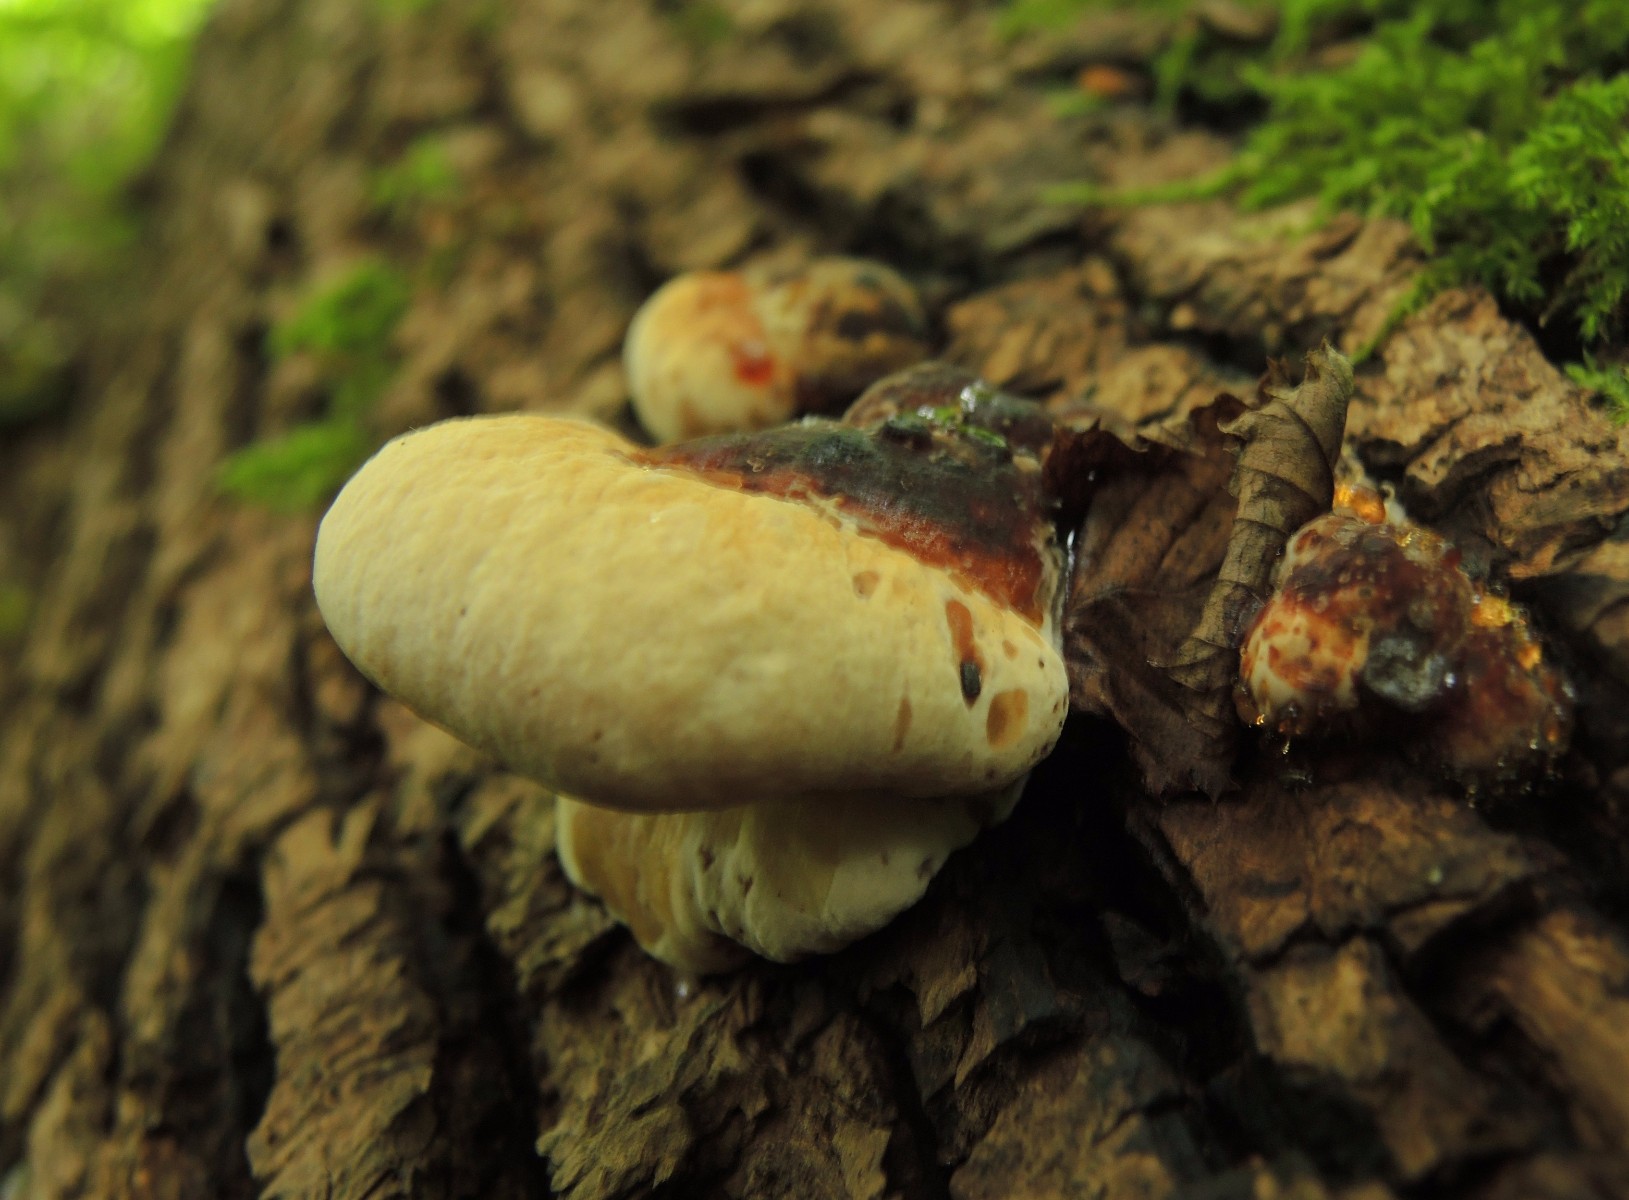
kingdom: Fungi
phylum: Basidiomycota
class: Agaricomycetes
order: Polyporales
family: Ischnodermataceae
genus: Ischnoderma
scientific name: Ischnoderma resinosum
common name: løv-tjæreporesvamp
